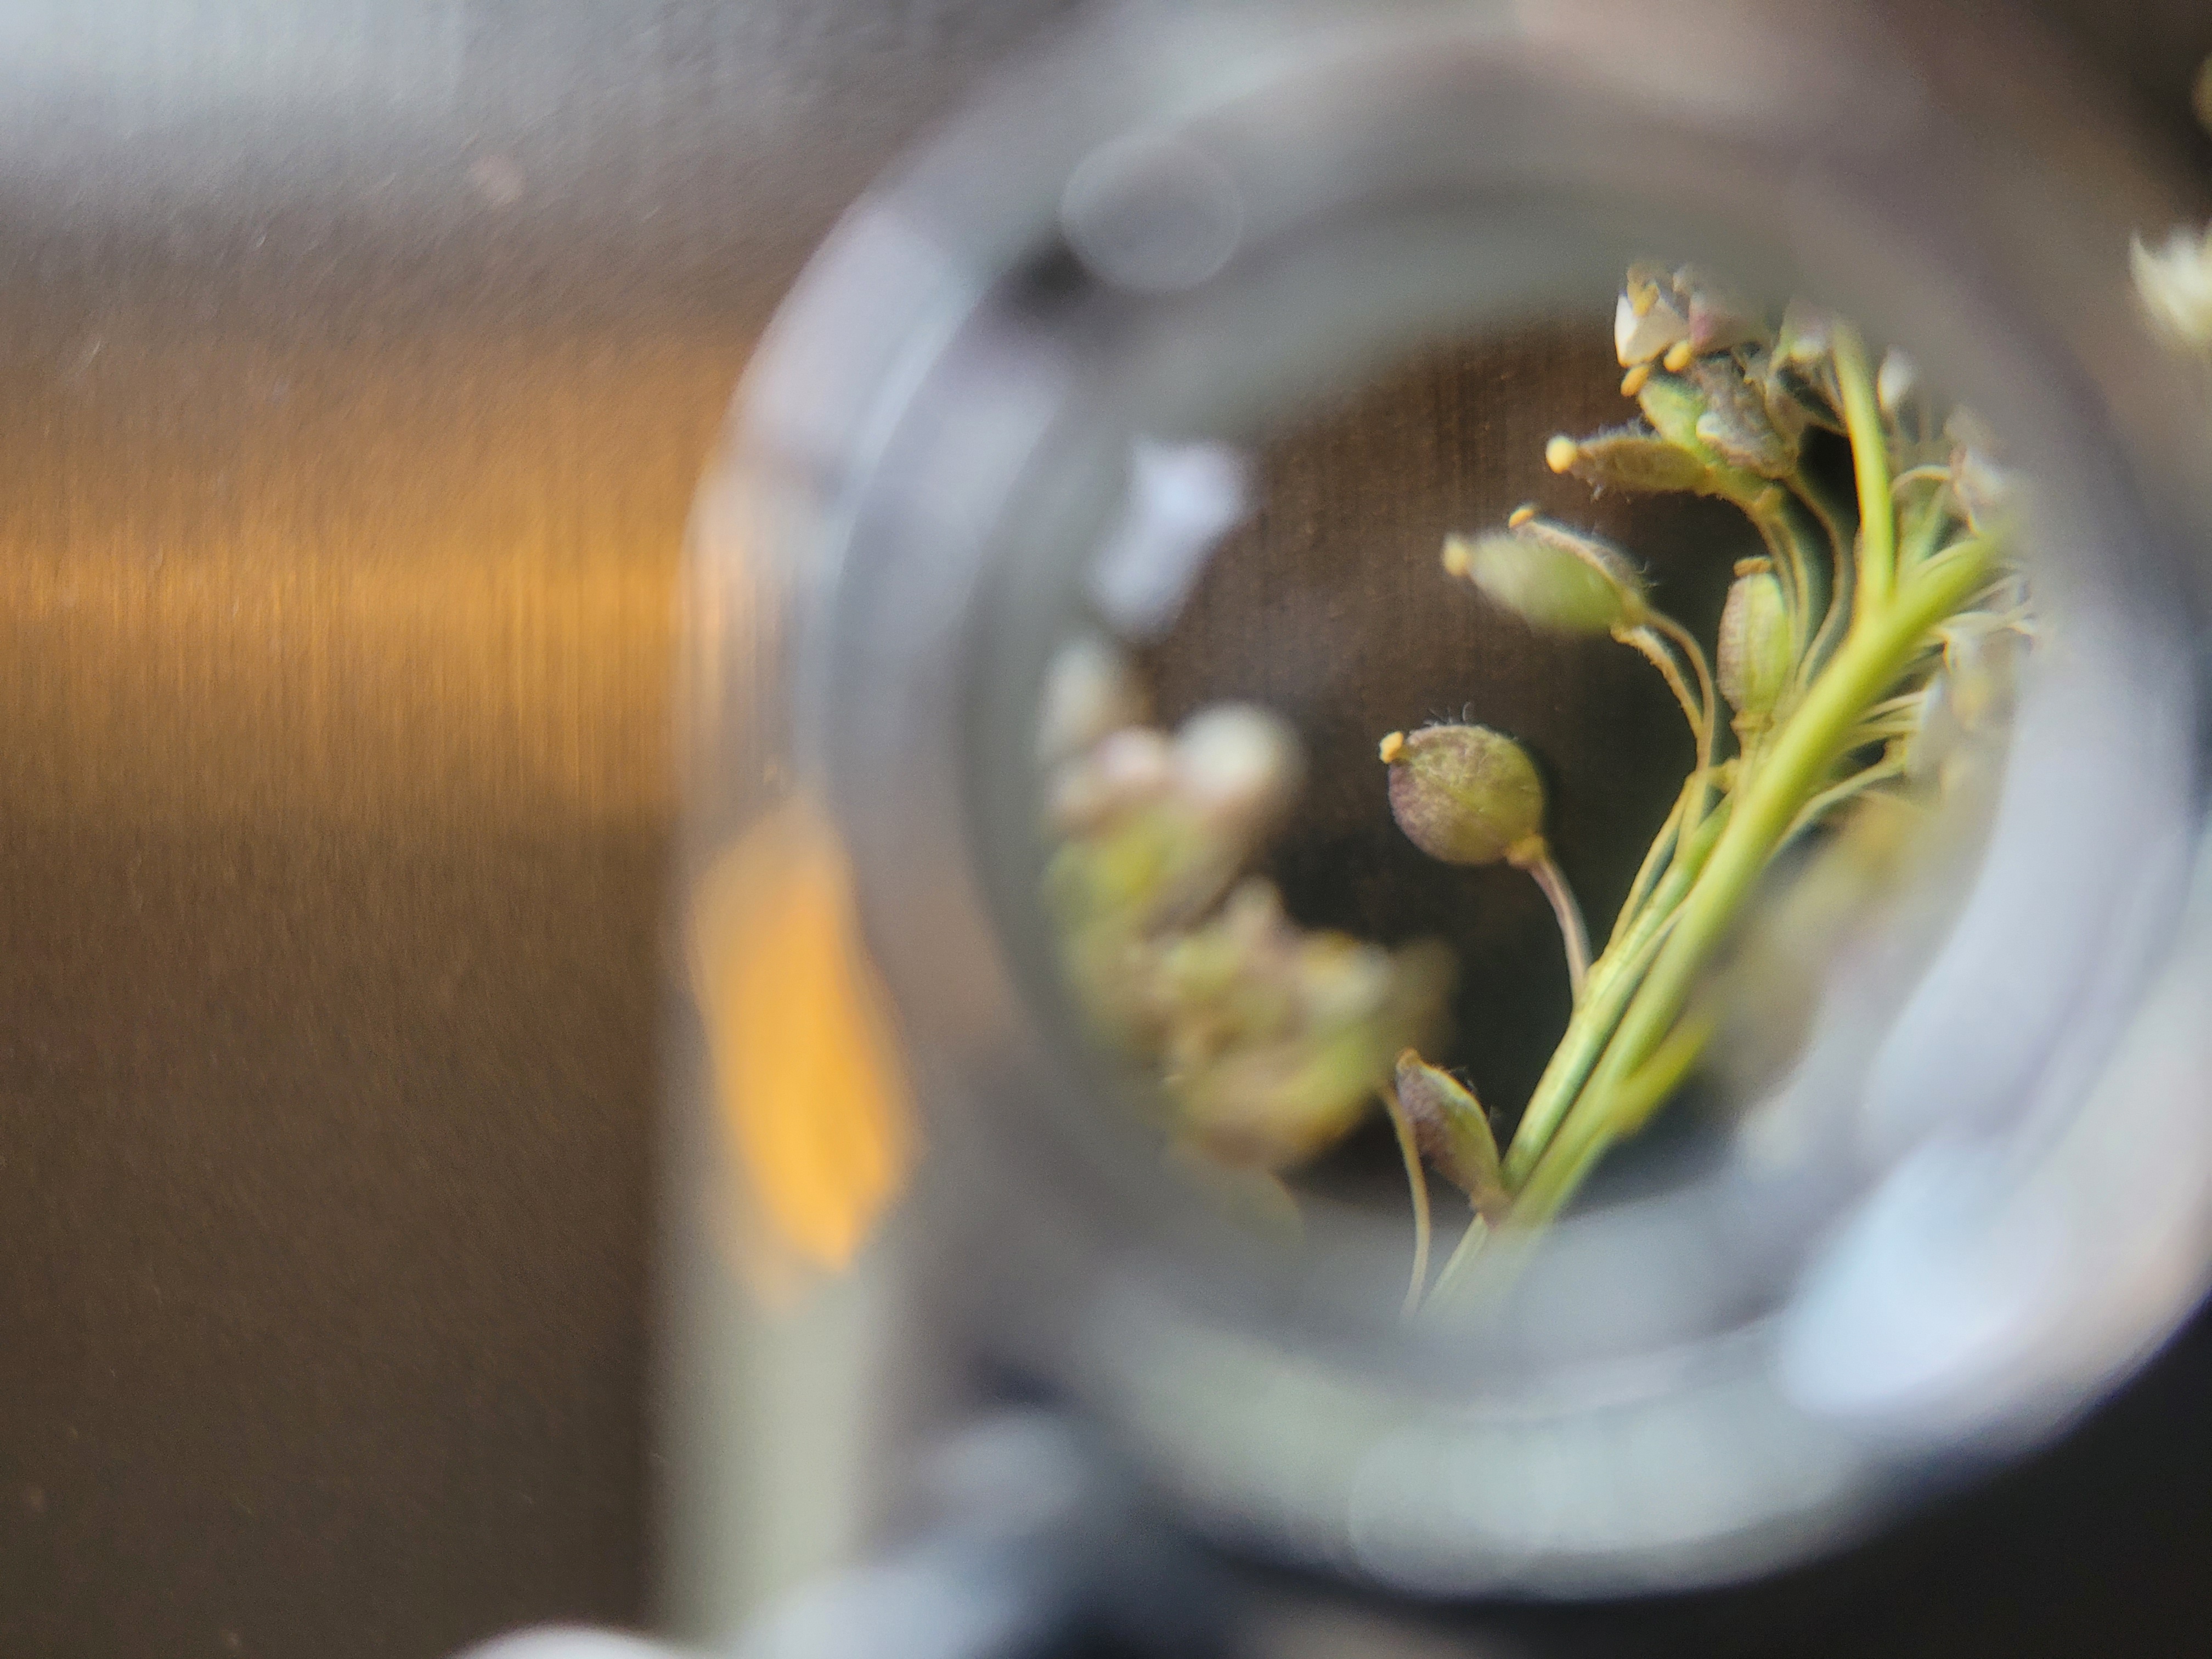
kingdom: Plantae
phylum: Tracheophyta
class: Magnoliopsida
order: Brassicales
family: Brassicaceae
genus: Lepidium
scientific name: Lepidium latifolium
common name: Strand-karse
